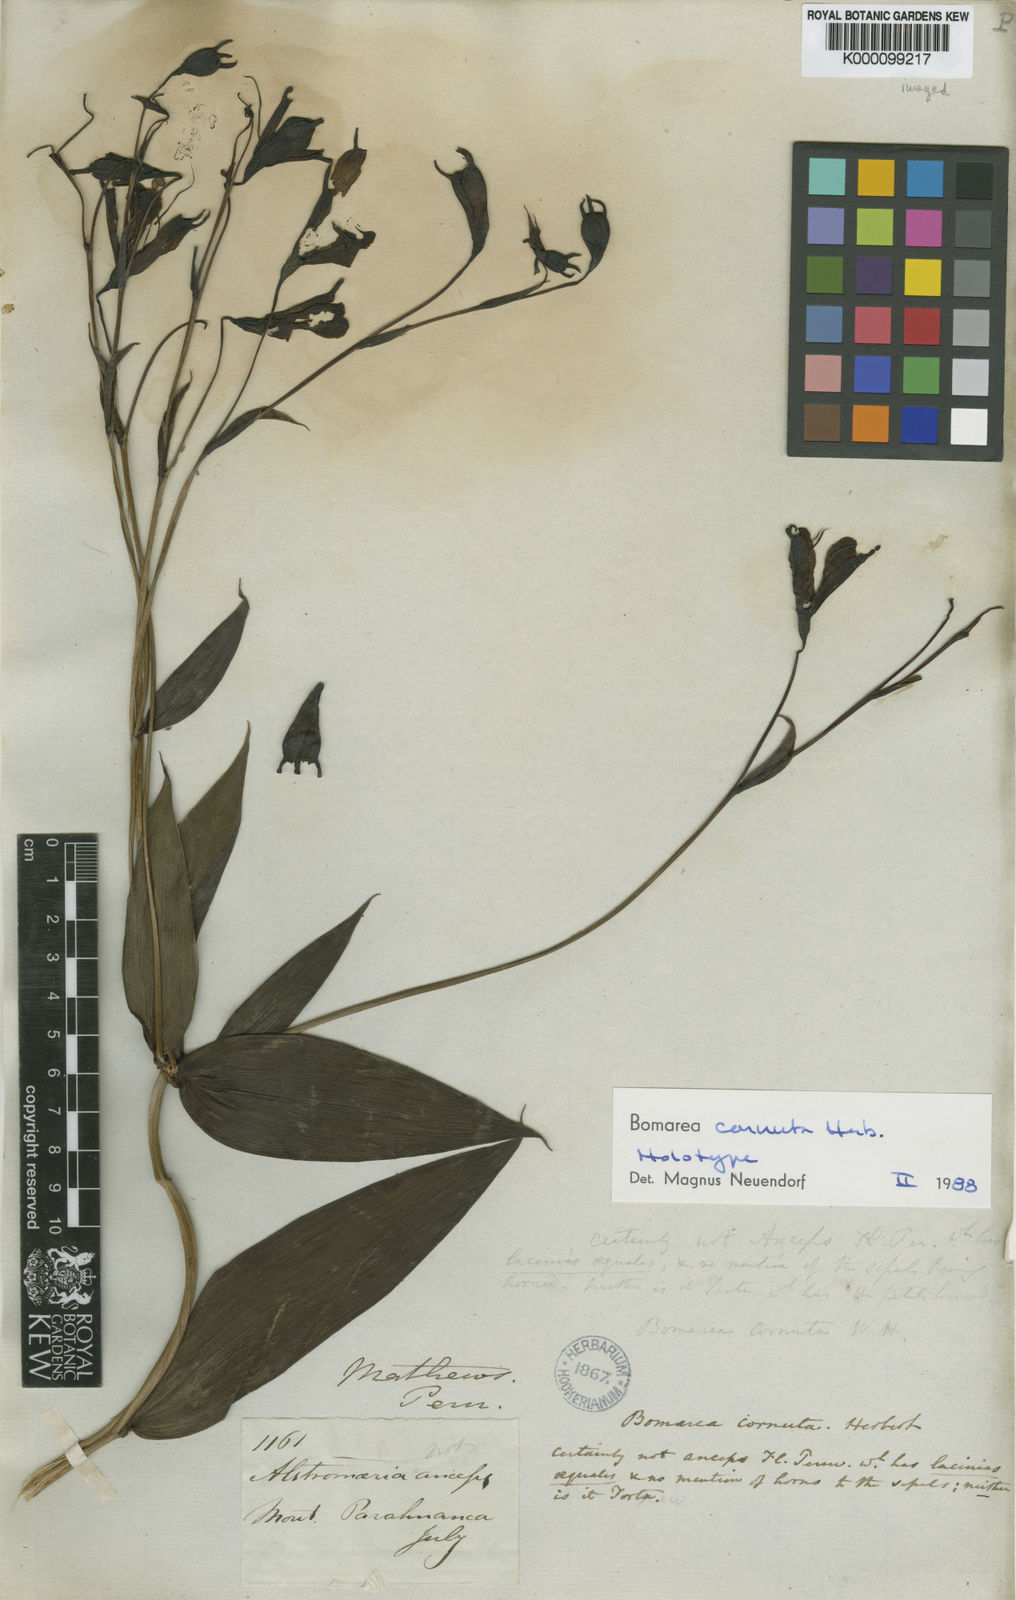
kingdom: Plantae
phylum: Tracheophyta
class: Liliopsida
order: Liliales
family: Alstroemeriaceae
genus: Bomarea
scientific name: Bomarea edulis
